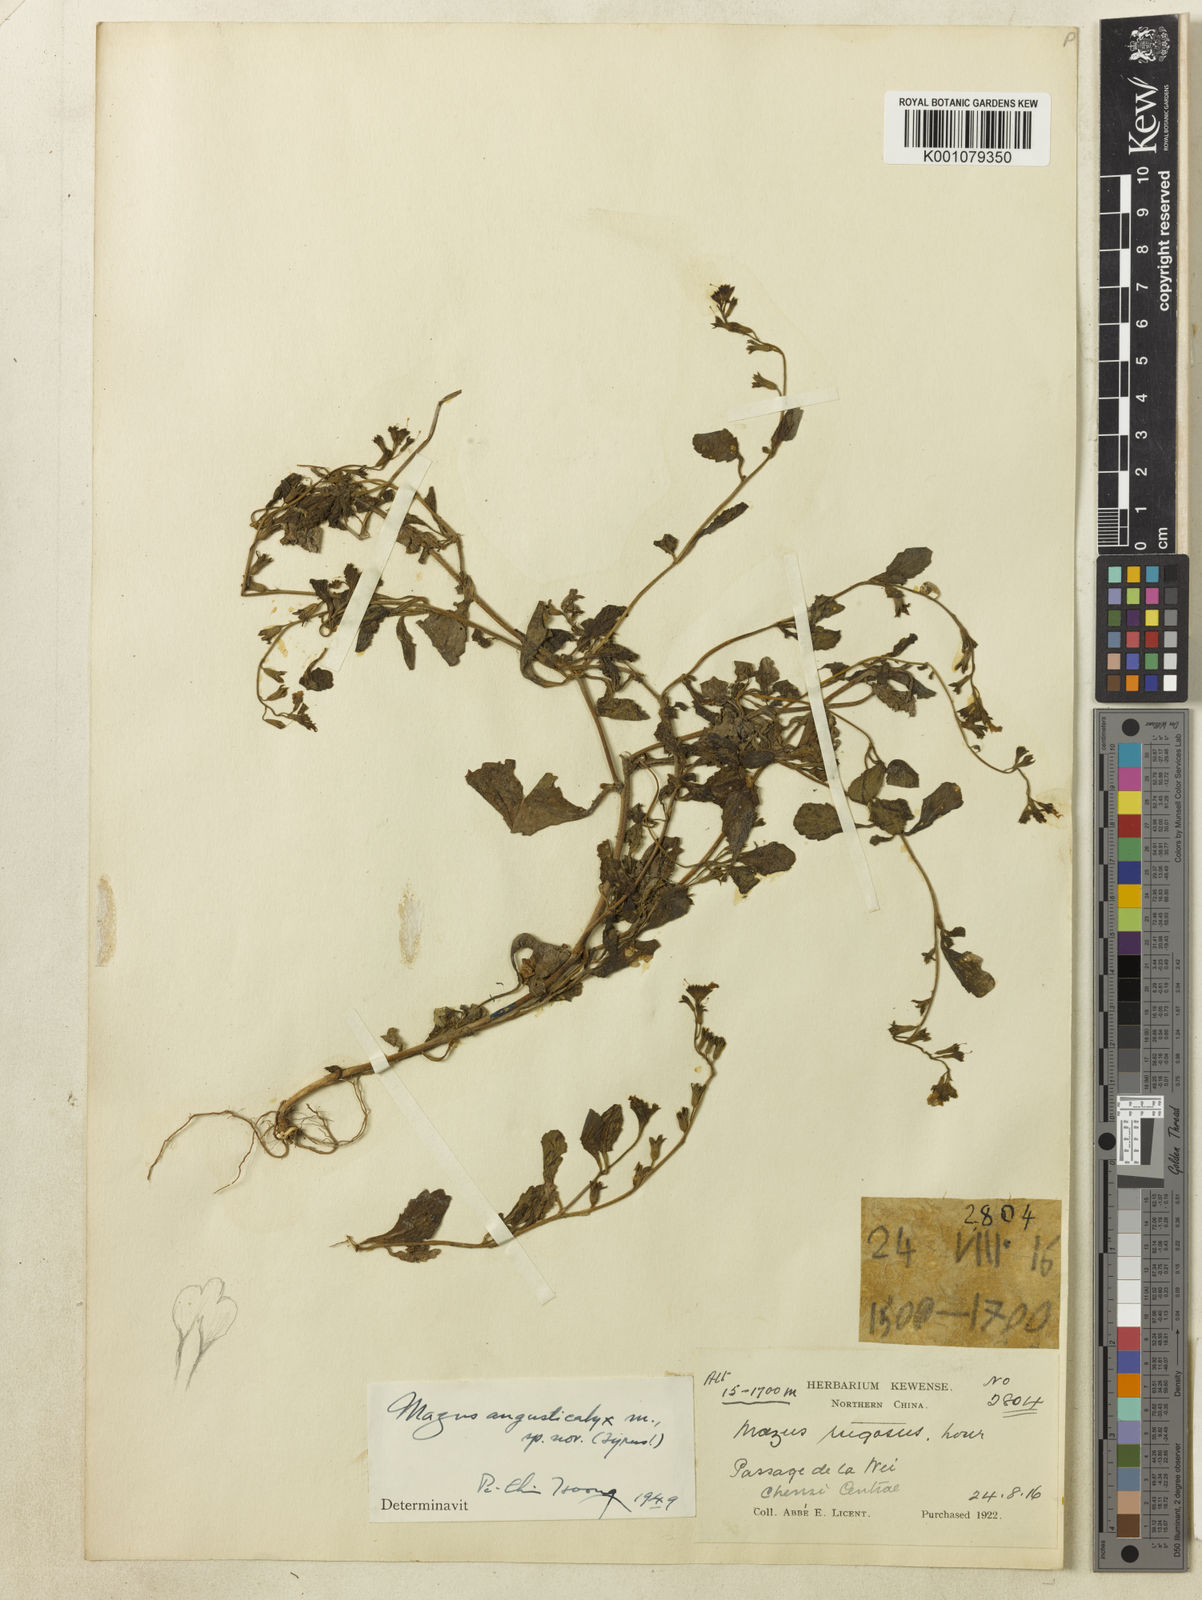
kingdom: Plantae
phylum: Tracheophyta
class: Magnoliopsida
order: Lamiales
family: Mazaceae
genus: Mazus
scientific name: Mazus spicatus
